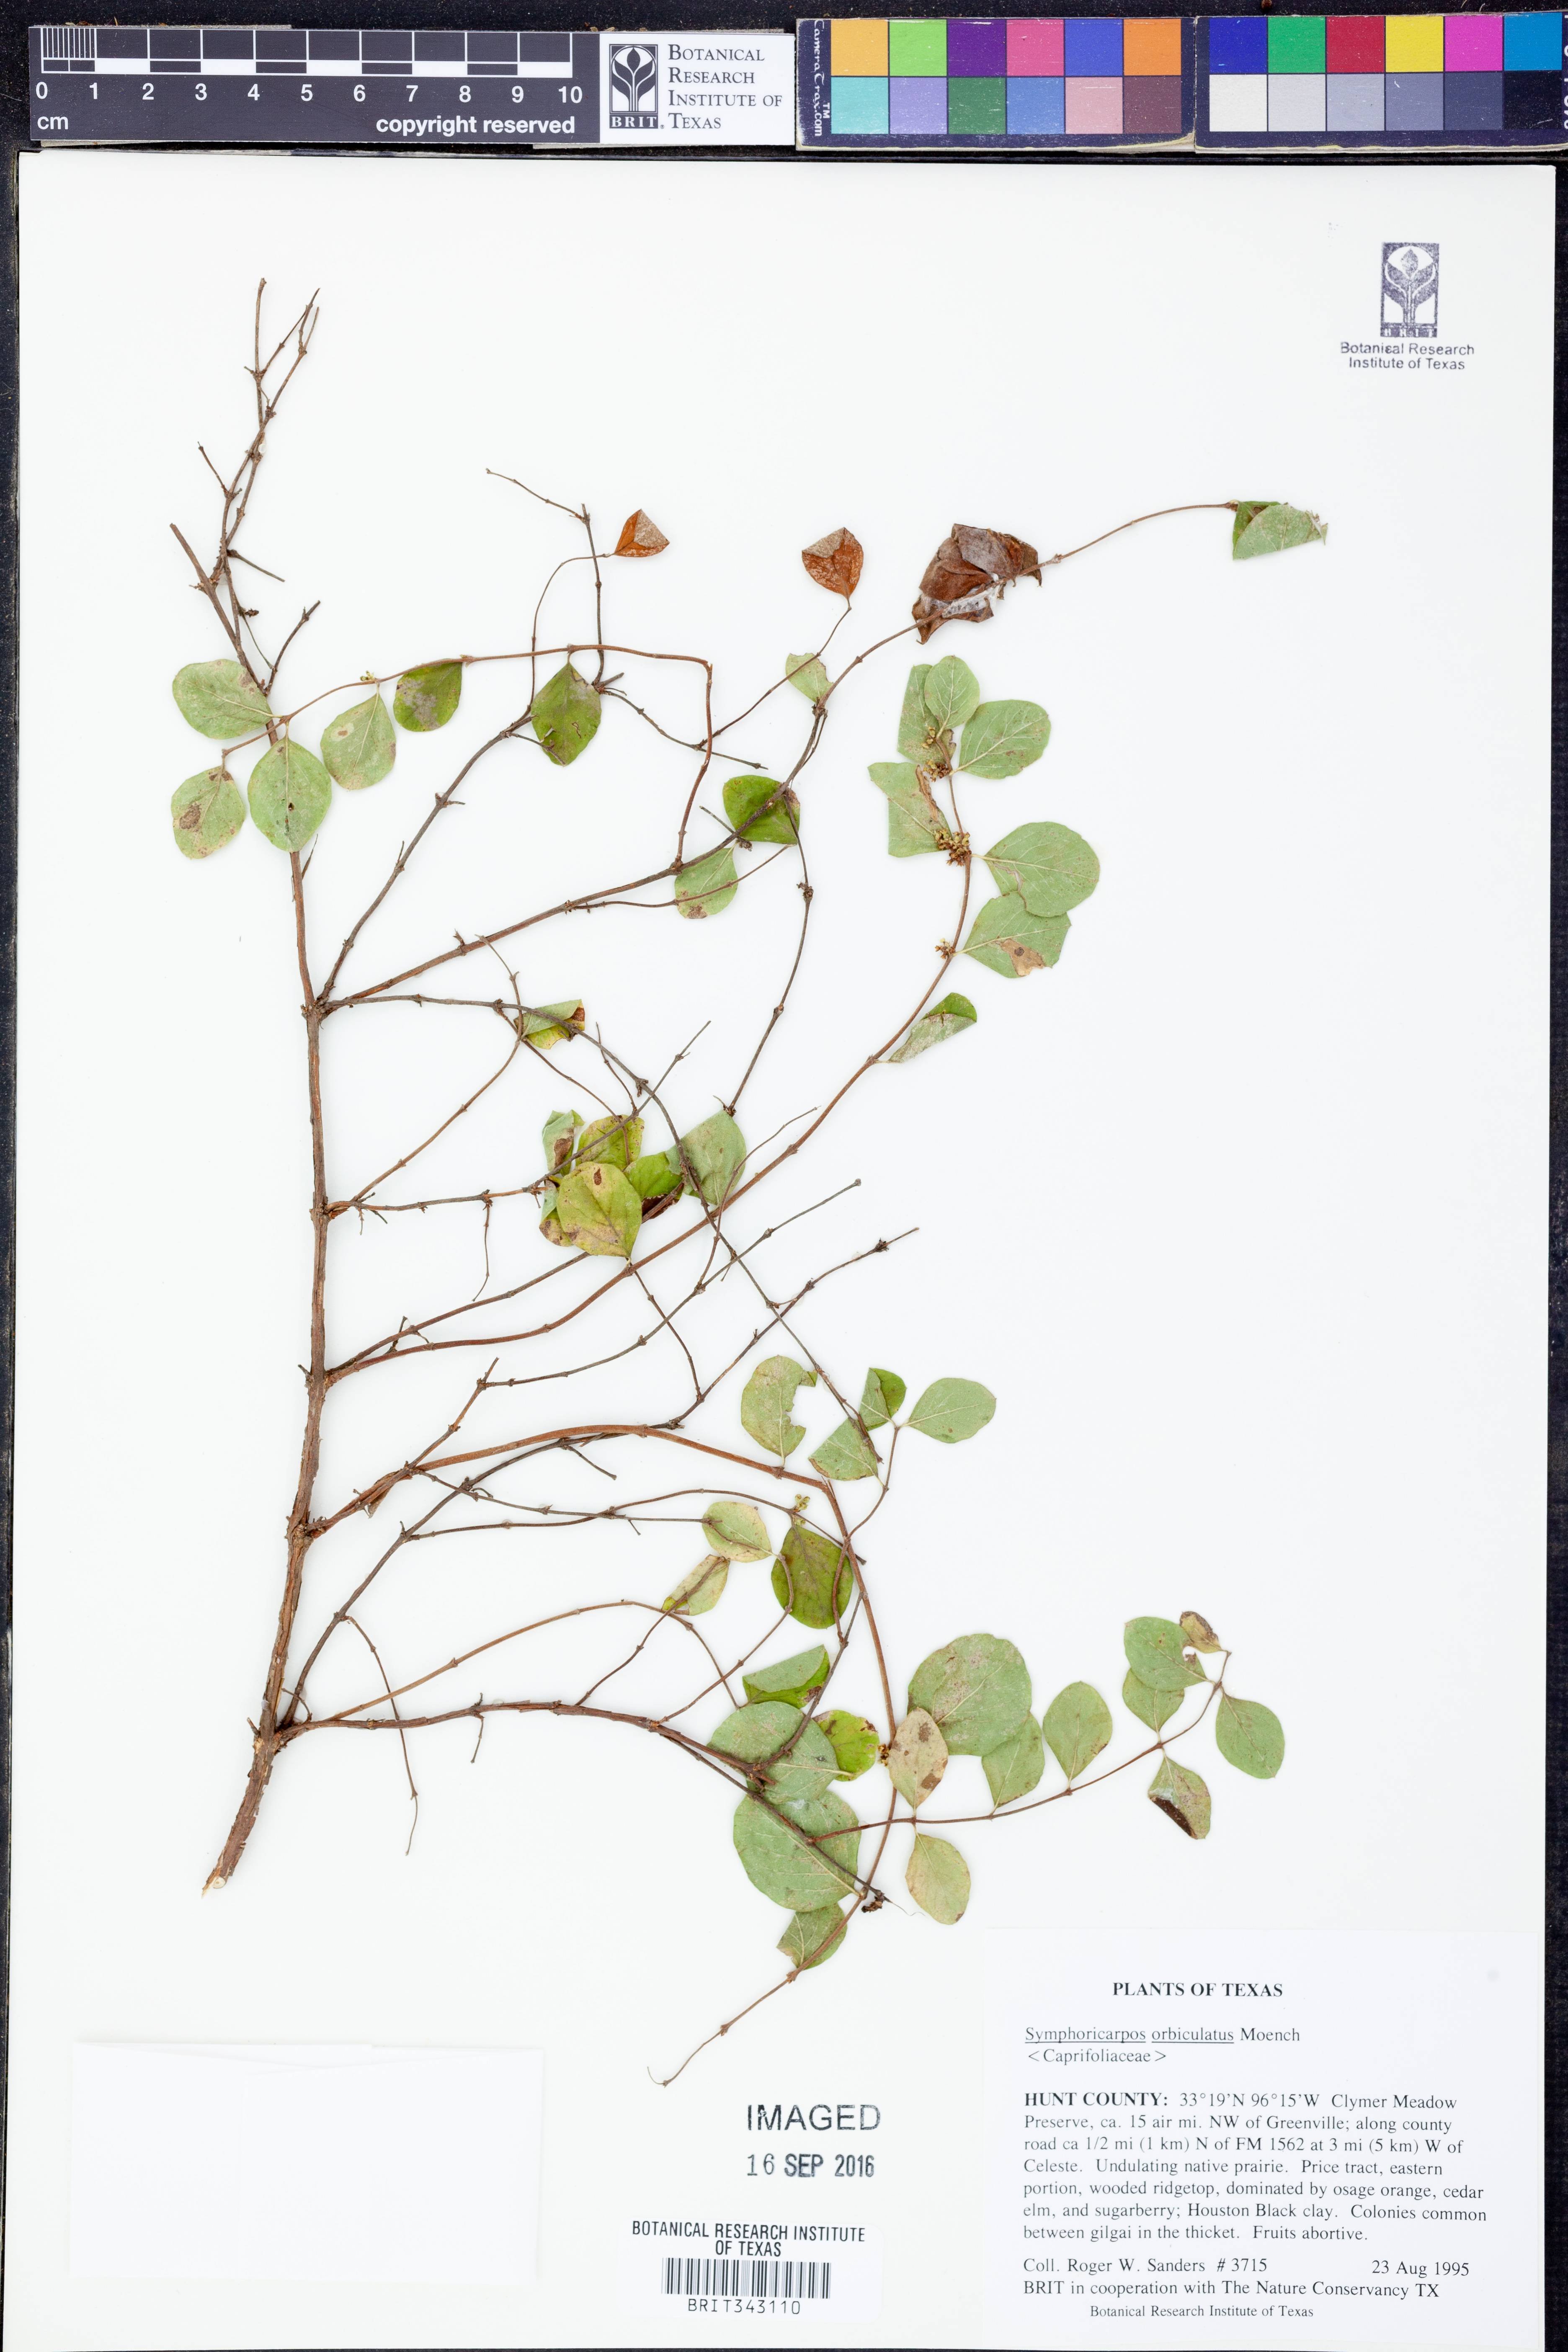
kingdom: Plantae
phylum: Tracheophyta
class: Magnoliopsida
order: Dipsacales
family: Caprifoliaceae
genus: Symphoricarpos
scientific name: Symphoricarpos orbiculatus
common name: Coralberry
